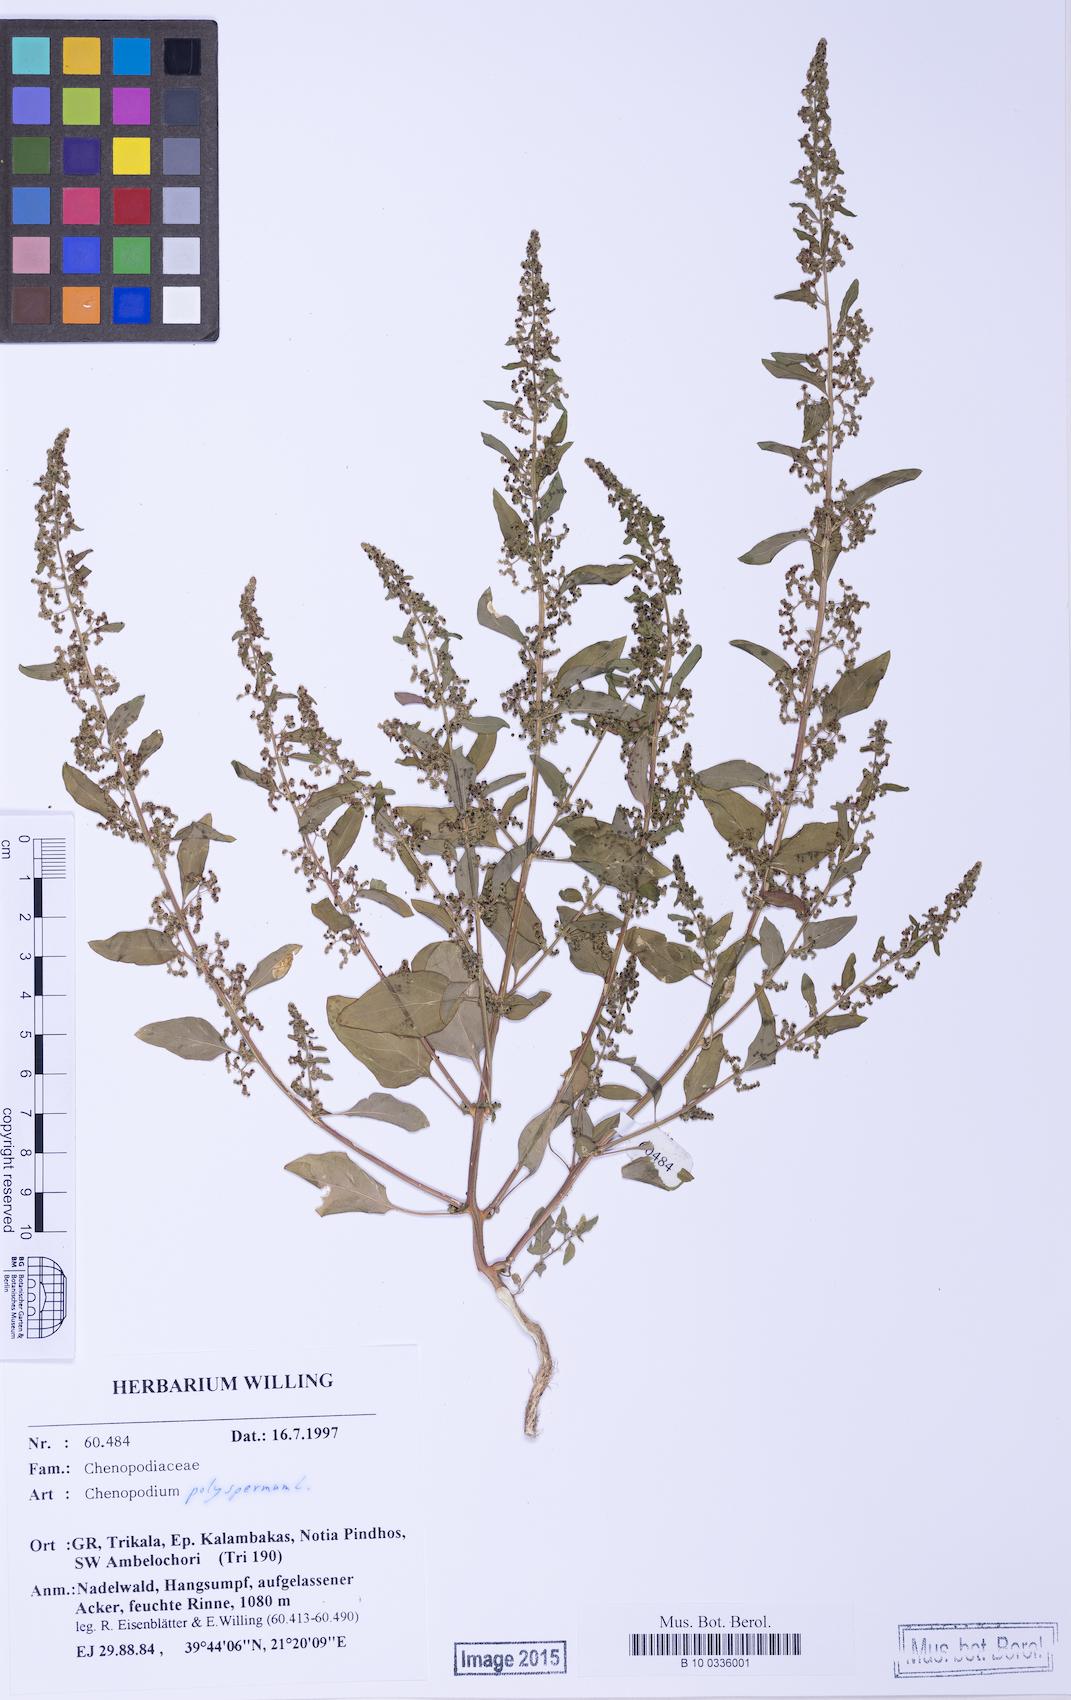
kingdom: Plantae
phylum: Tracheophyta
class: Magnoliopsida
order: Caryophyllales
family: Amaranthaceae
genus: Lipandra
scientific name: Lipandra polysperma
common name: Many-seed goosefoot
